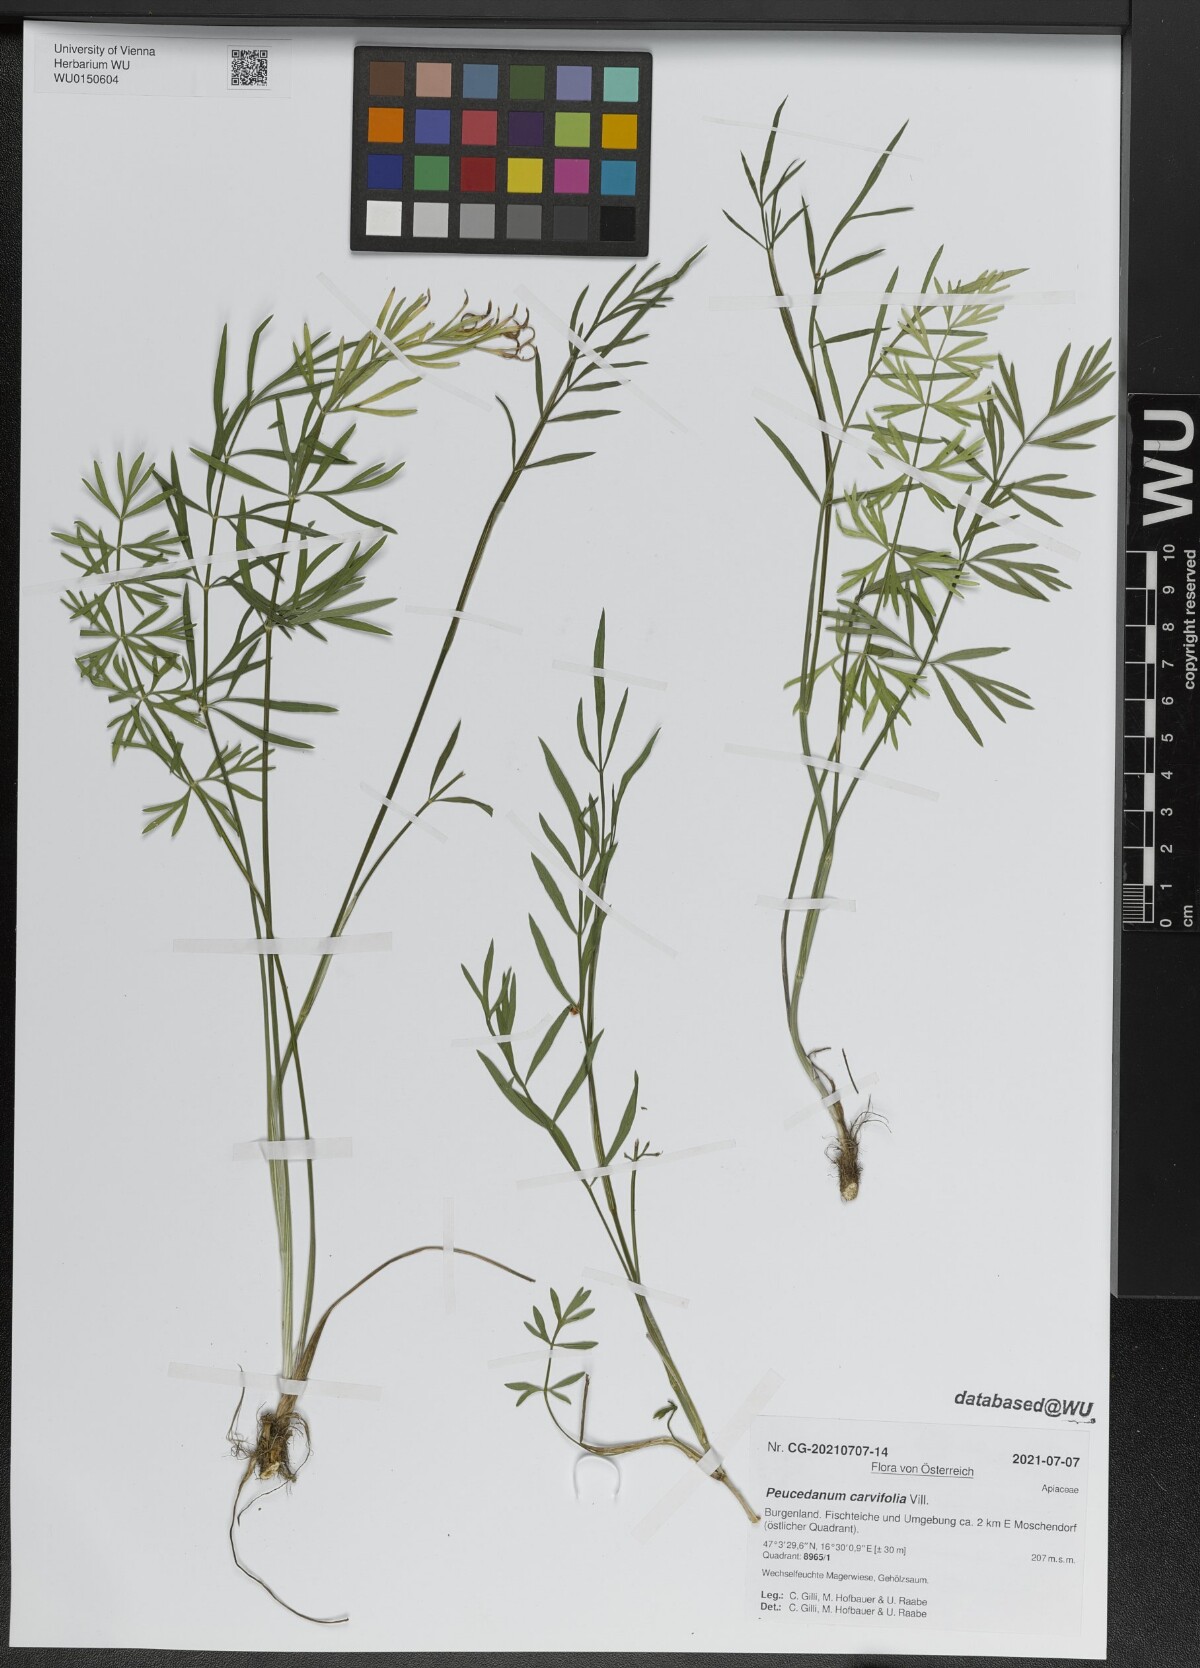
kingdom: Plantae
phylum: Tracheophyta
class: Magnoliopsida
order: Apiales
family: Apiaceae
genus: Dichoropetalum
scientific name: Dichoropetalum carvifolia
